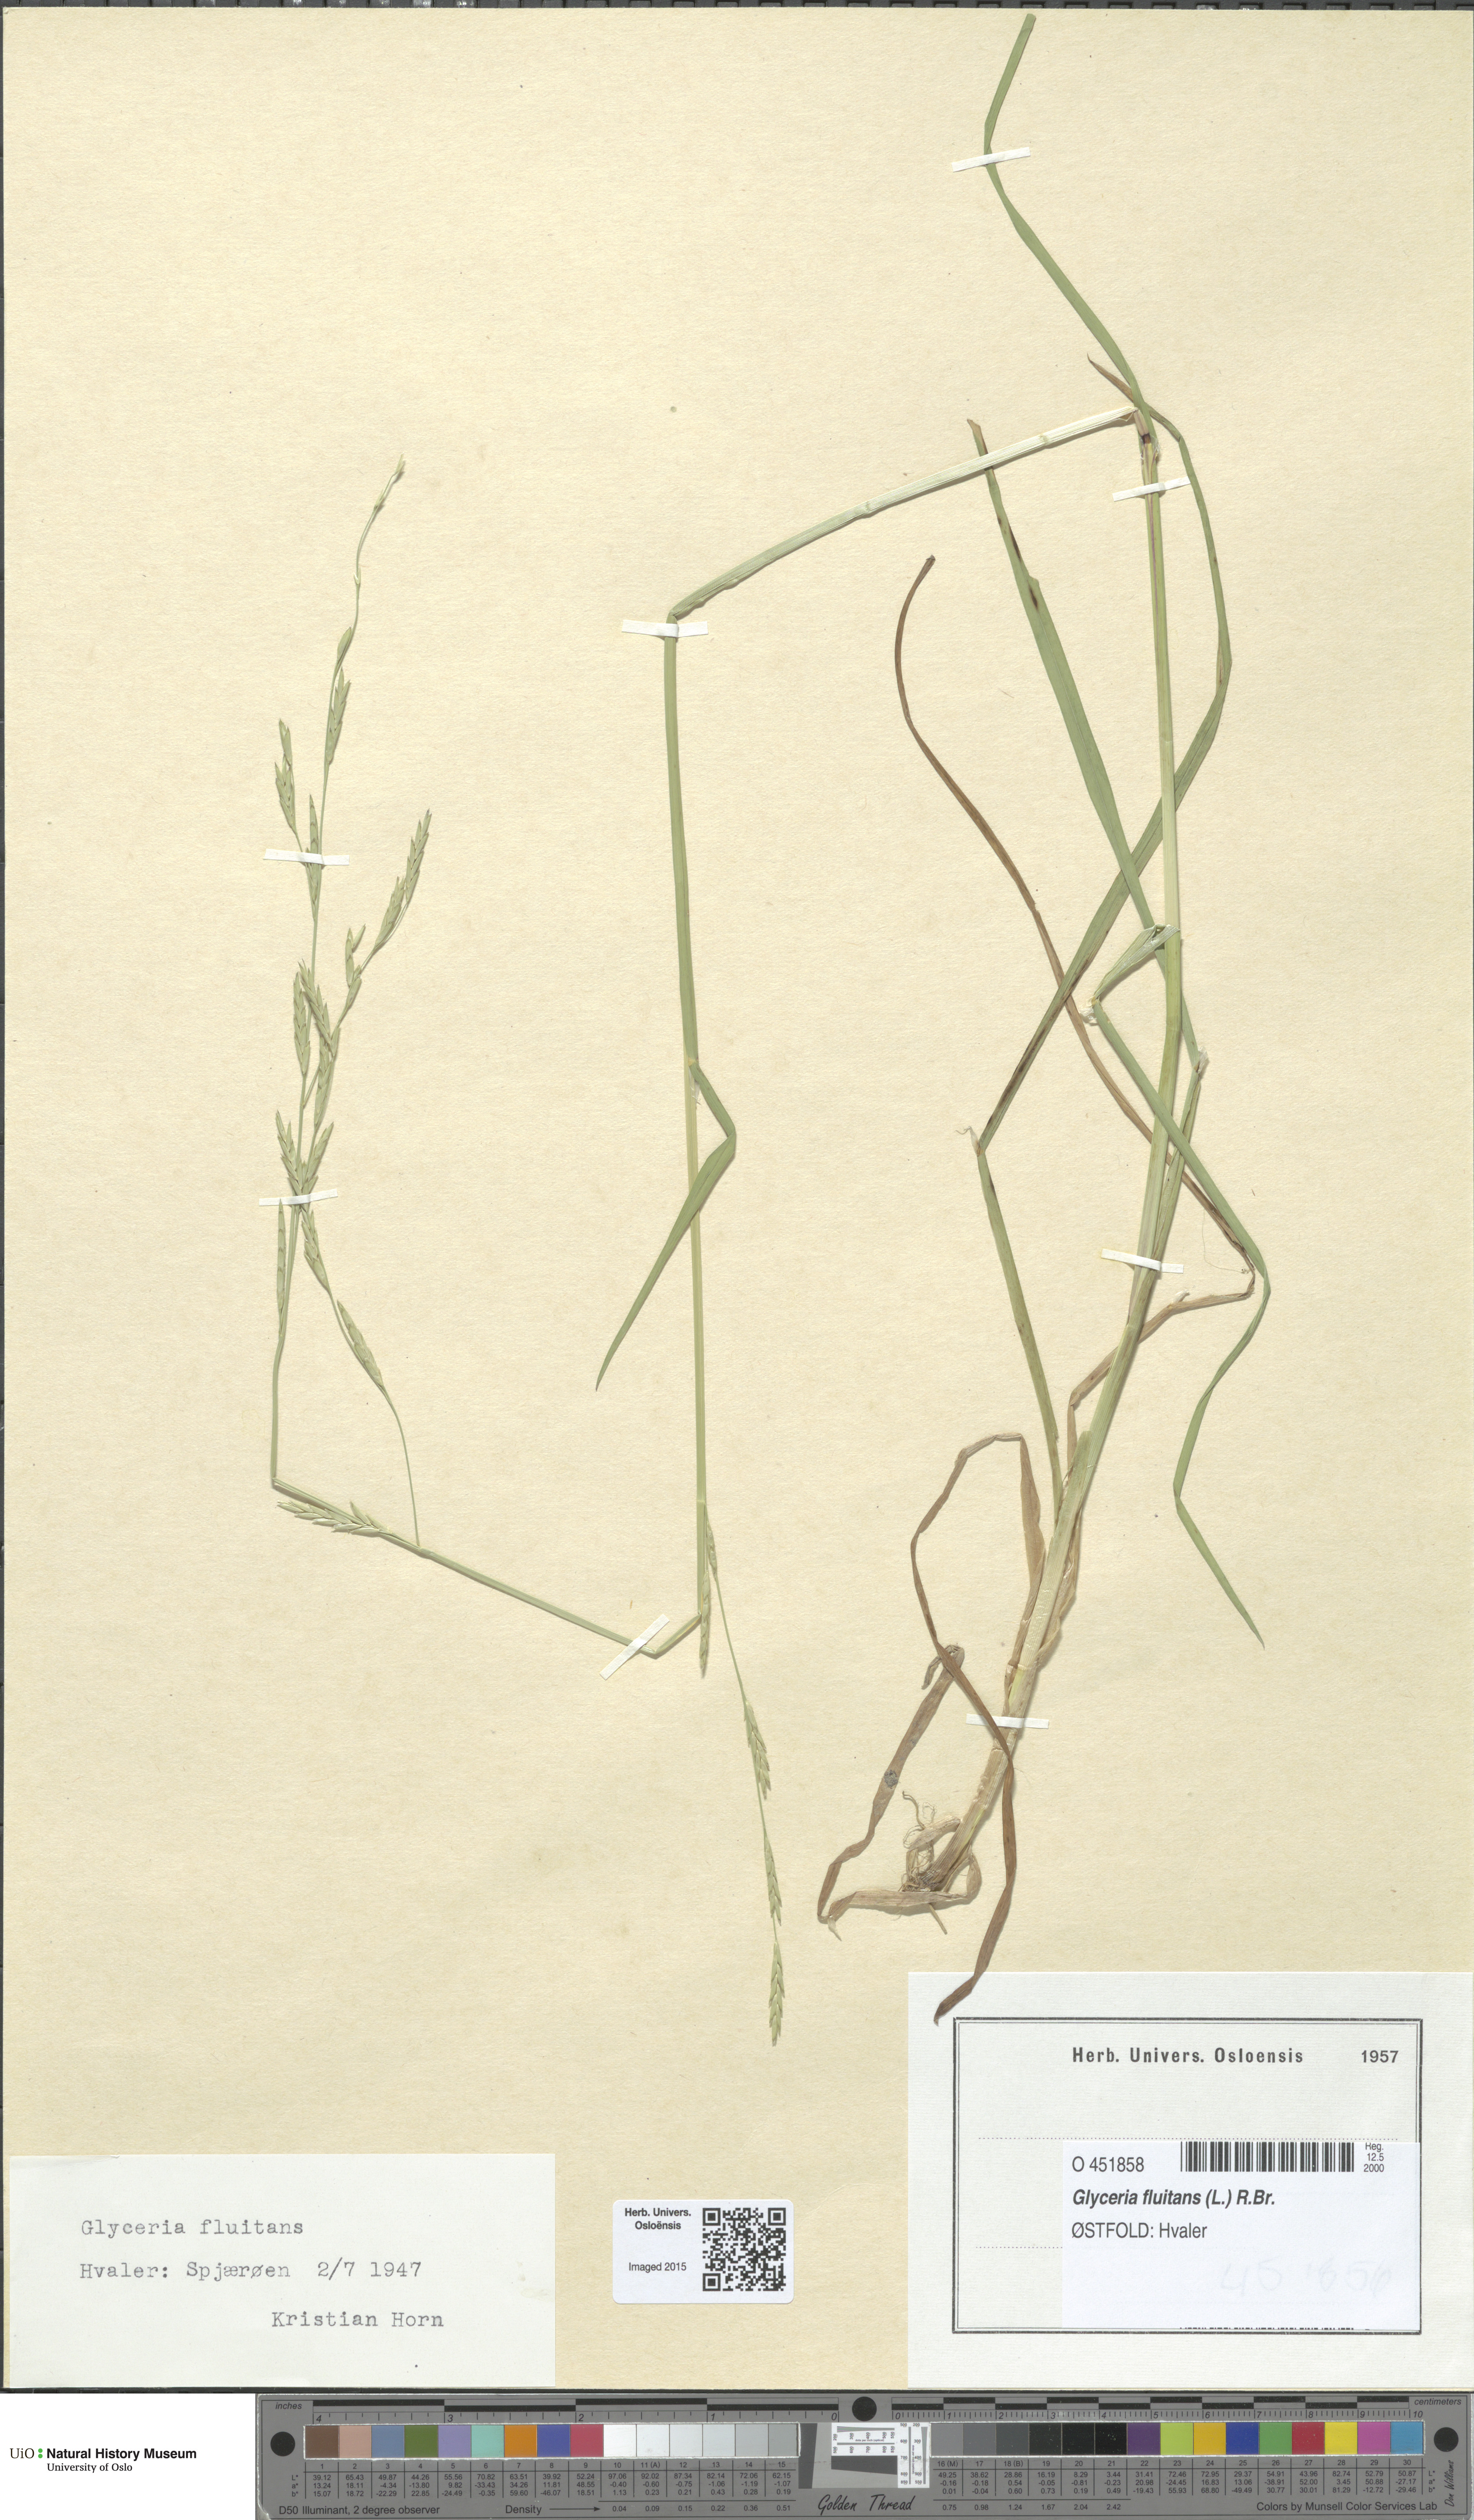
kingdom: Plantae
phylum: Tracheophyta
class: Liliopsida
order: Poales
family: Poaceae
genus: Glyceria
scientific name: Glyceria fluitans
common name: Floating sweet-grass
